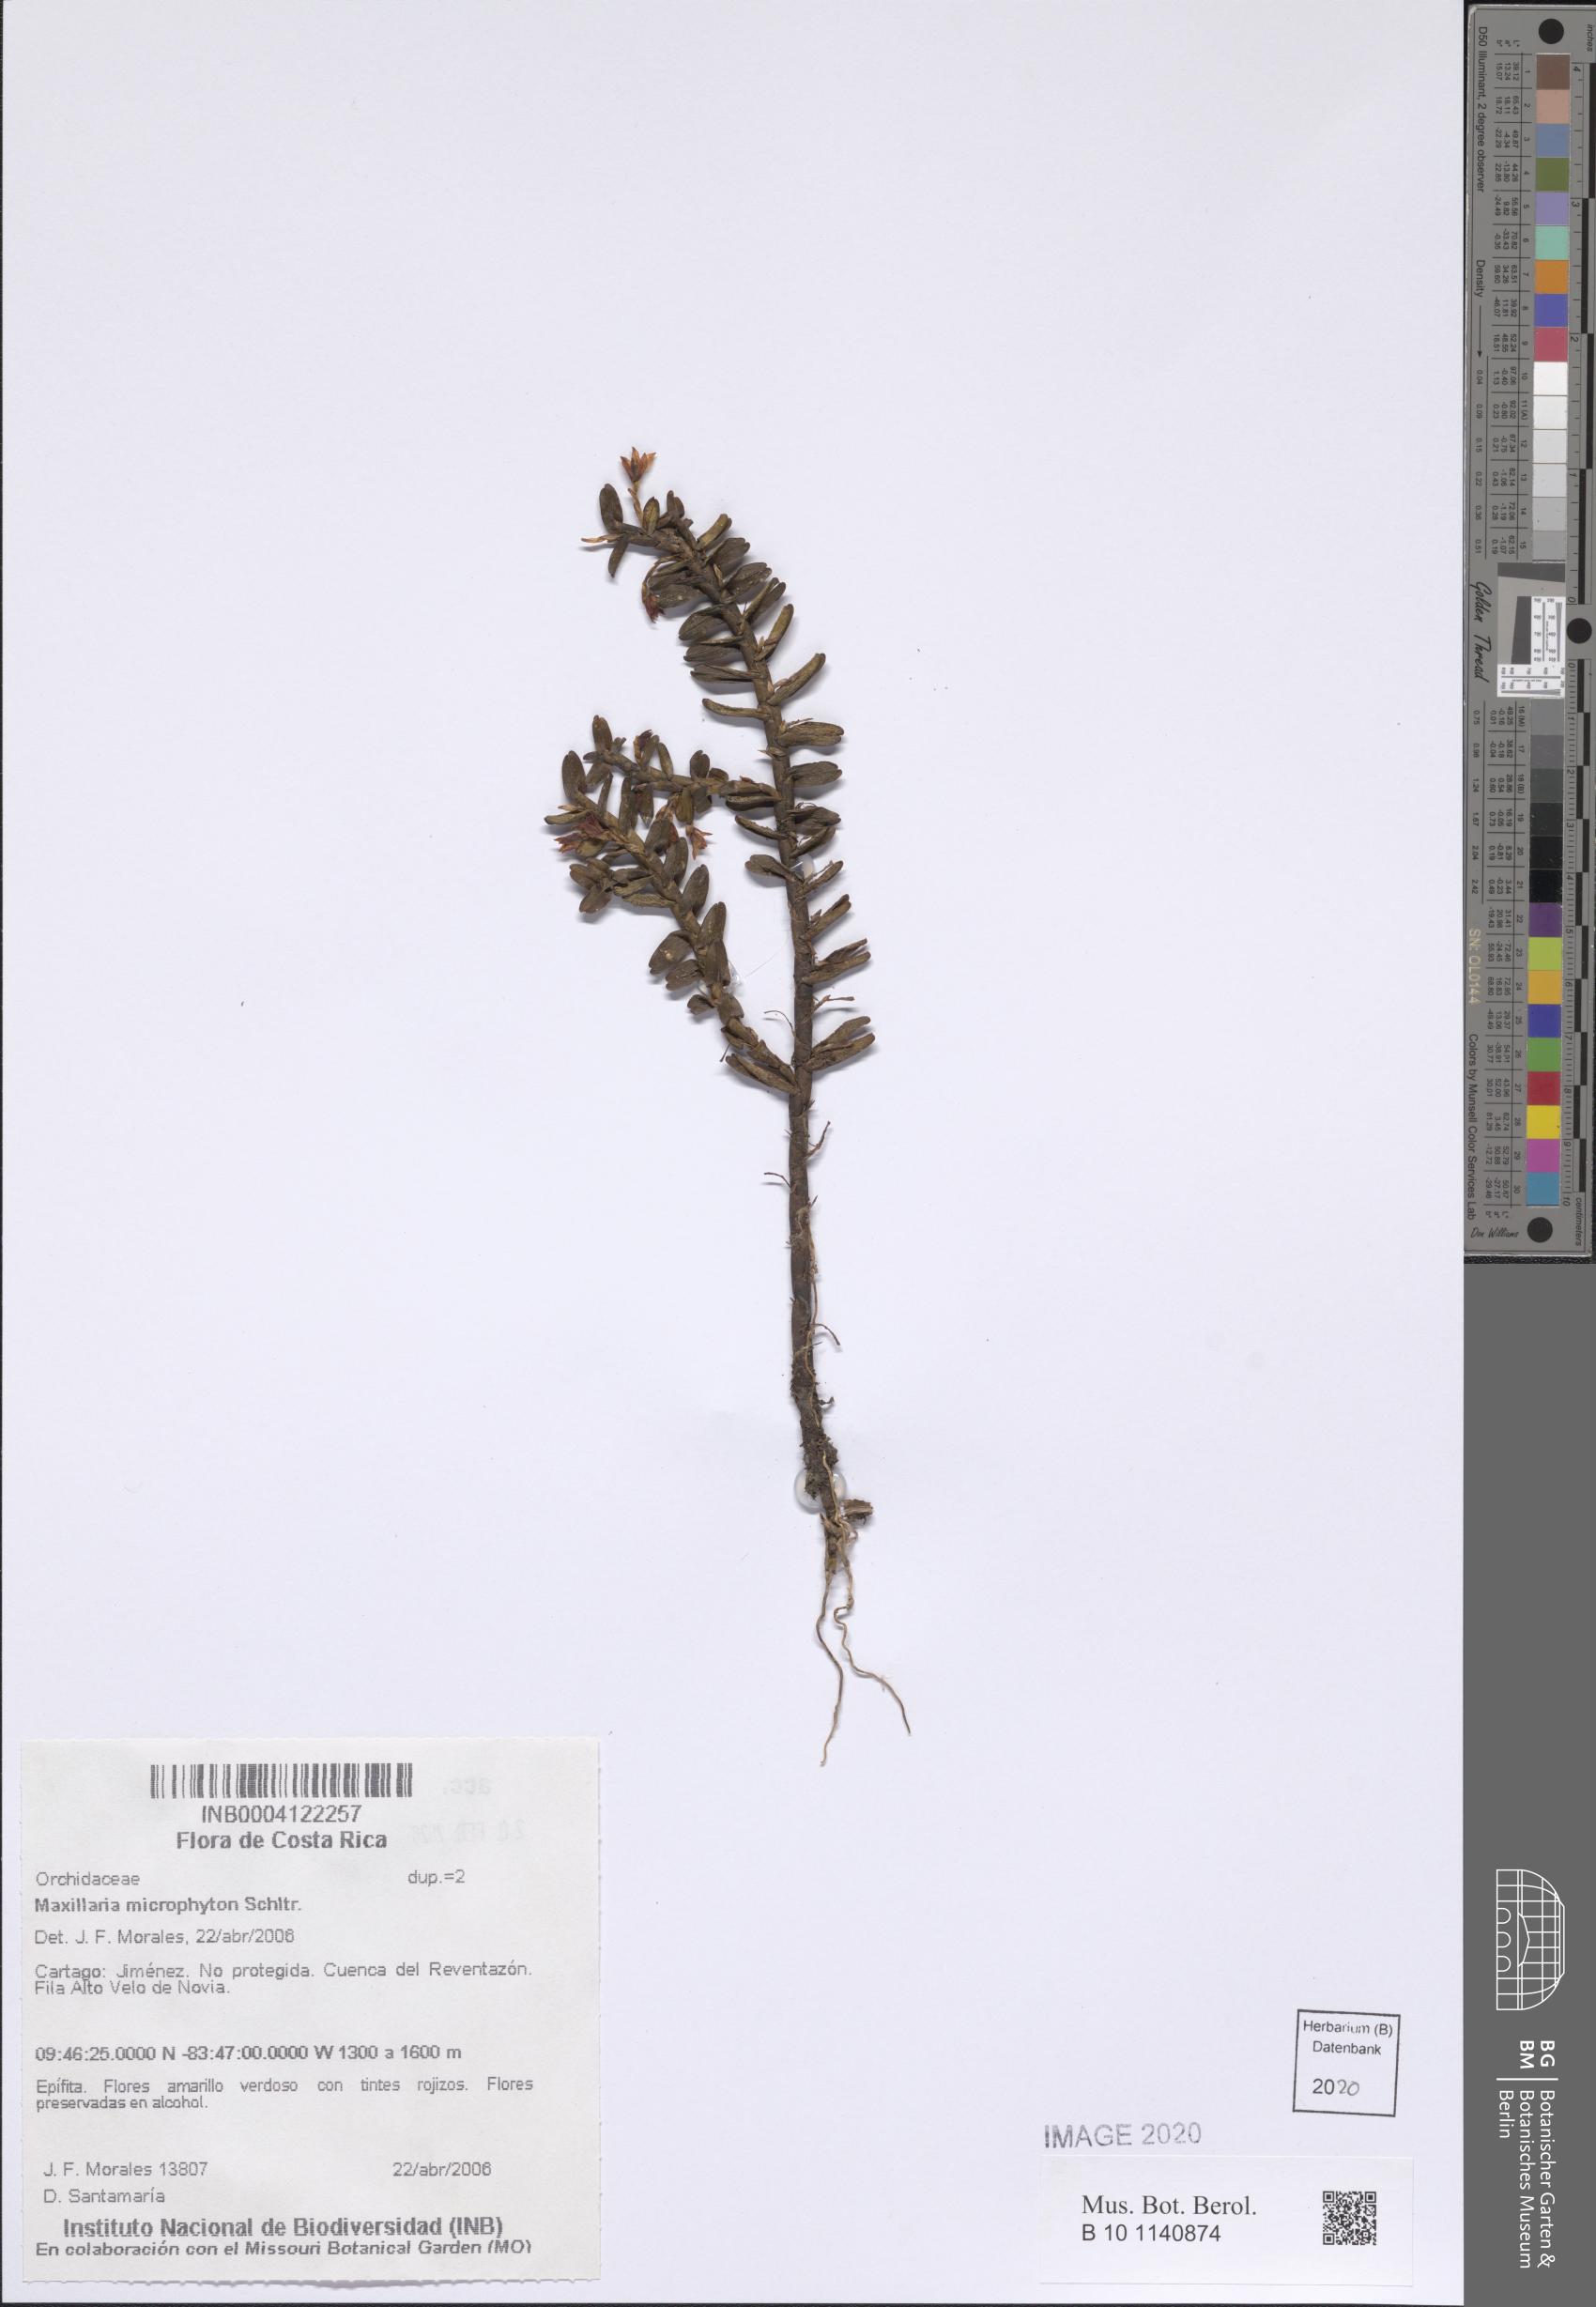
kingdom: Plantae
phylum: Tracheophyta
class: Liliopsida
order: Asparagales
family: Orchidaceae
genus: Maxillaria
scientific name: Maxillaria dendrobioides
